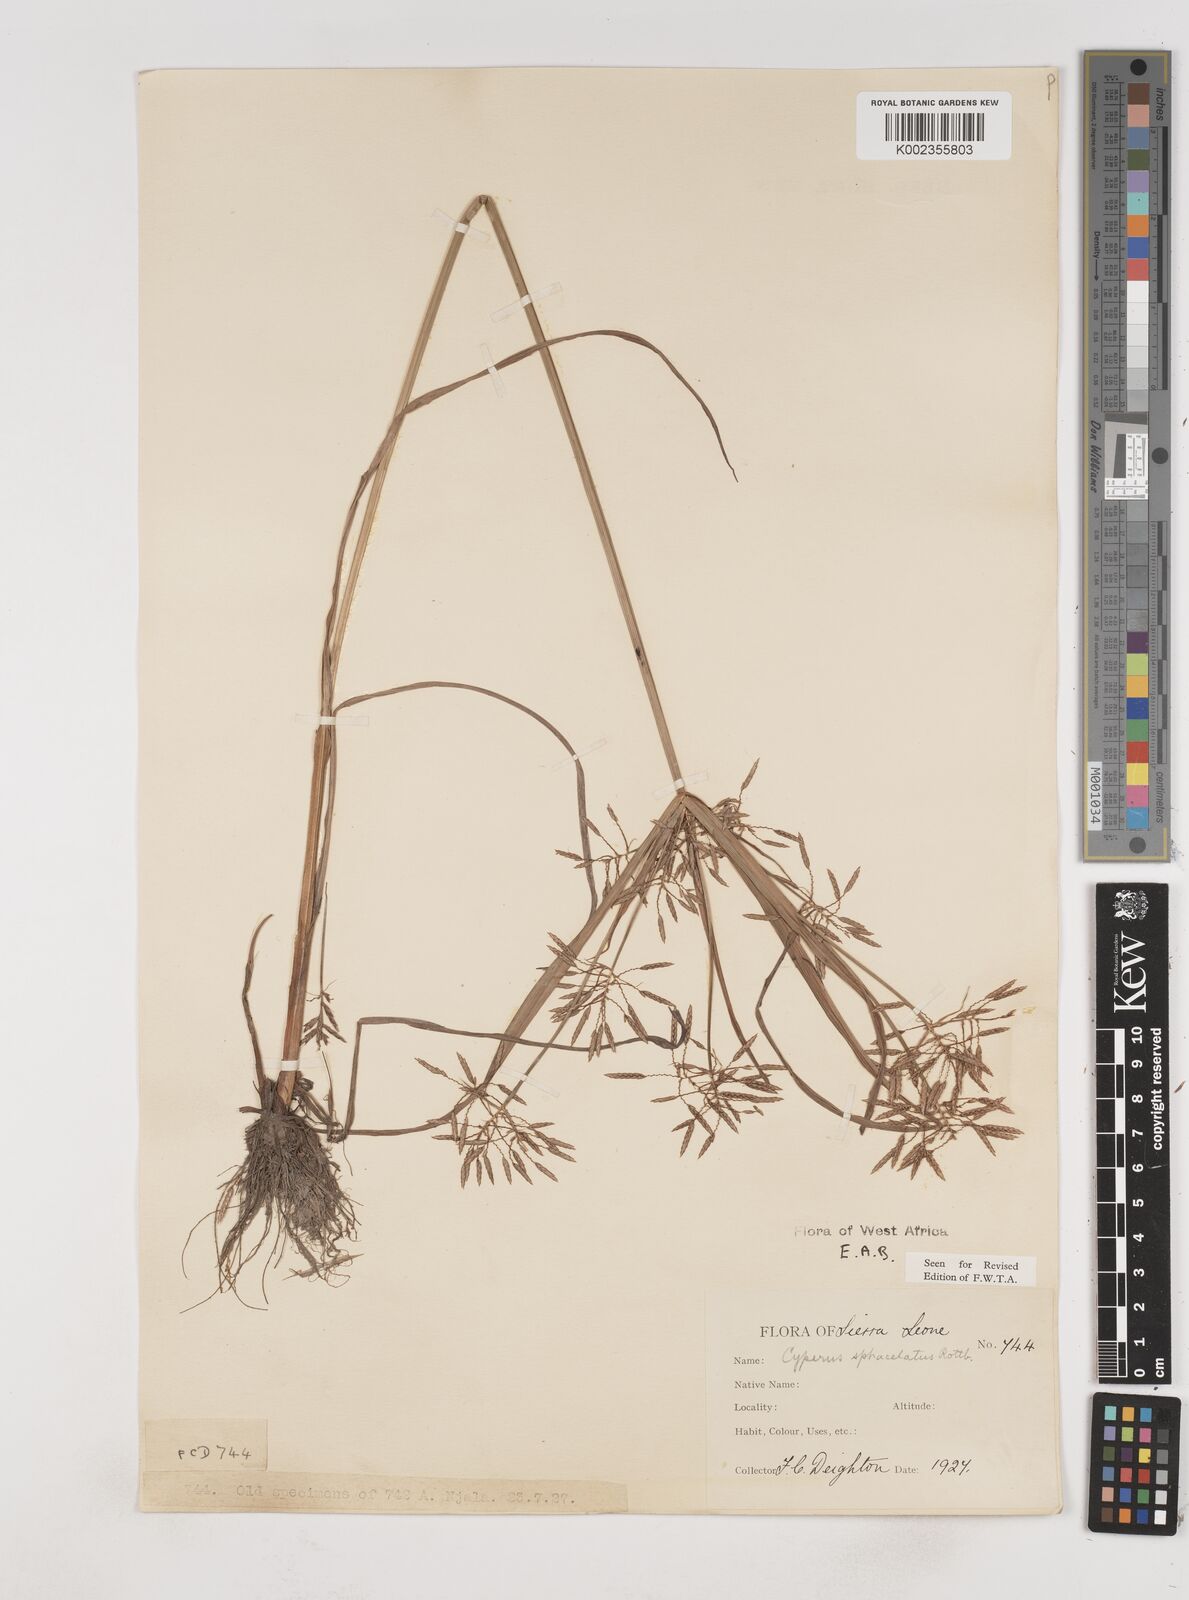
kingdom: Plantae
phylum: Tracheophyta
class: Liliopsida
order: Poales
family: Cyperaceae
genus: Cyperus
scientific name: Cyperus sphacelatus
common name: Roadside flatsedge
